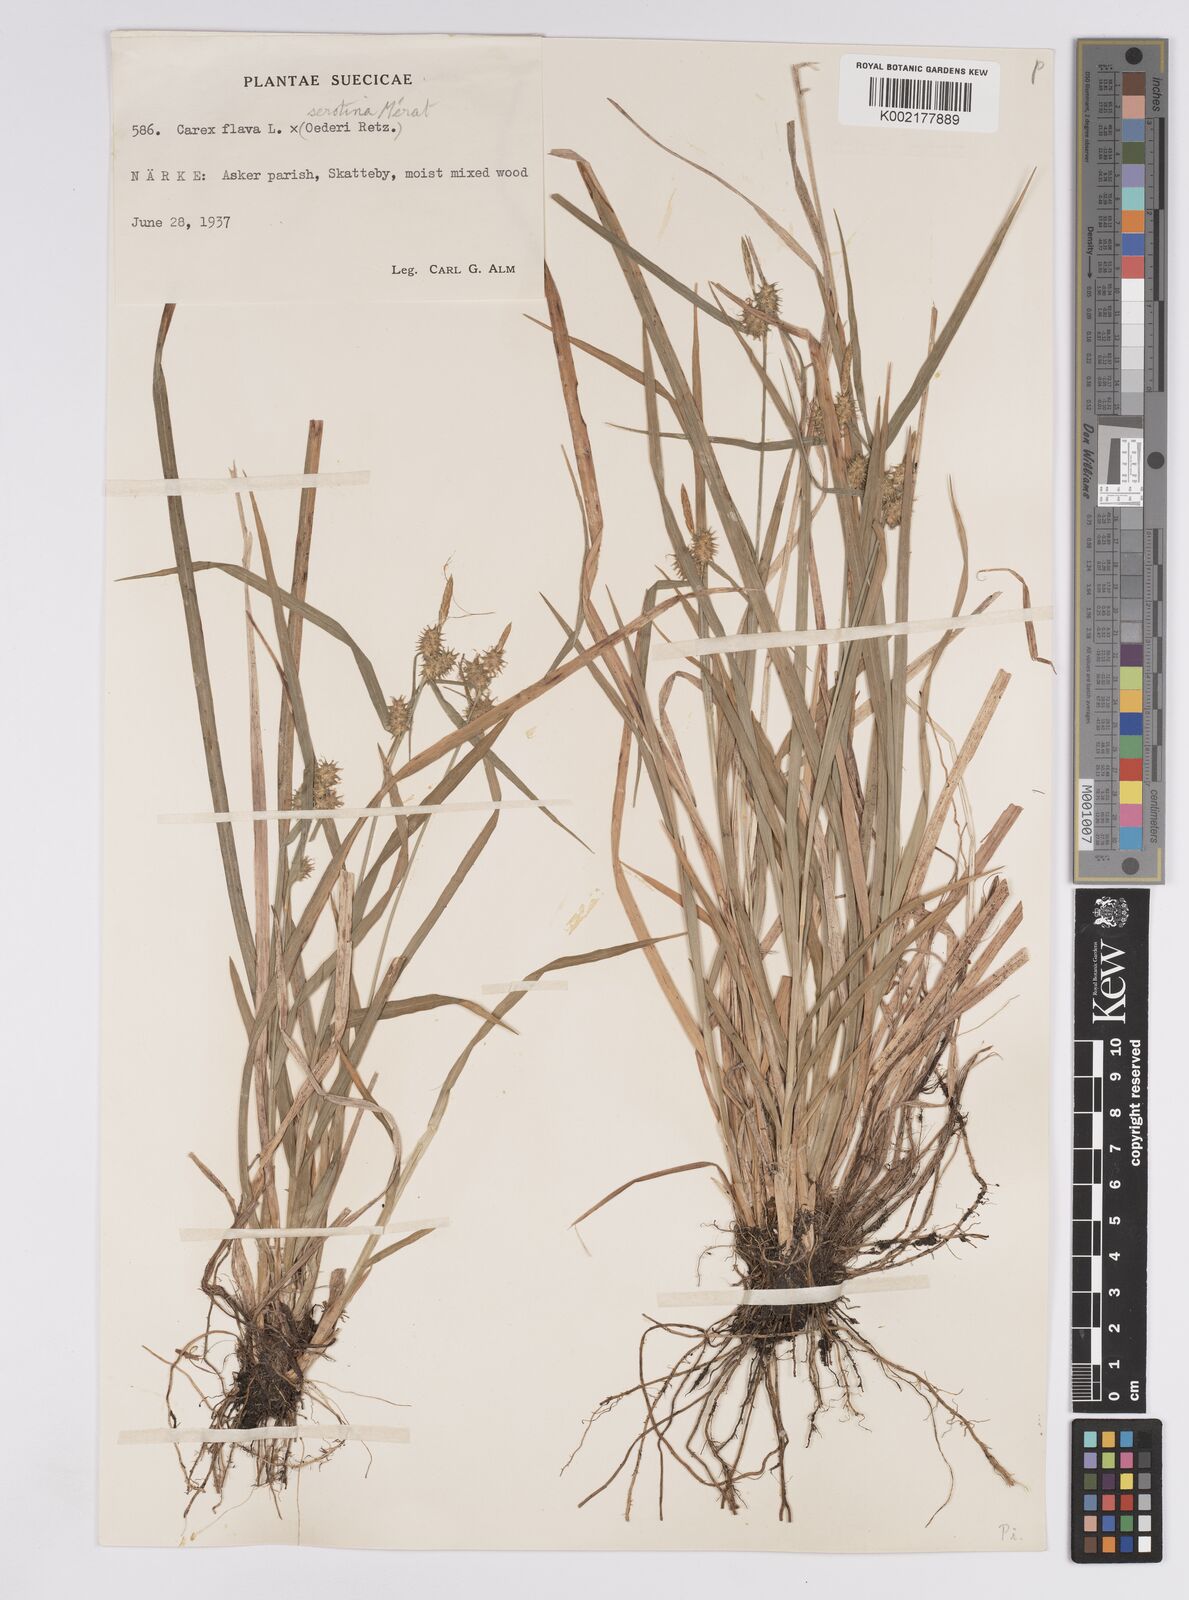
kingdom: Plantae
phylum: Tracheophyta
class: Liliopsida
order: Poales
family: Cyperaceae
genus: Carex
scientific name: Carex flava
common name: Large yellow-sedge
